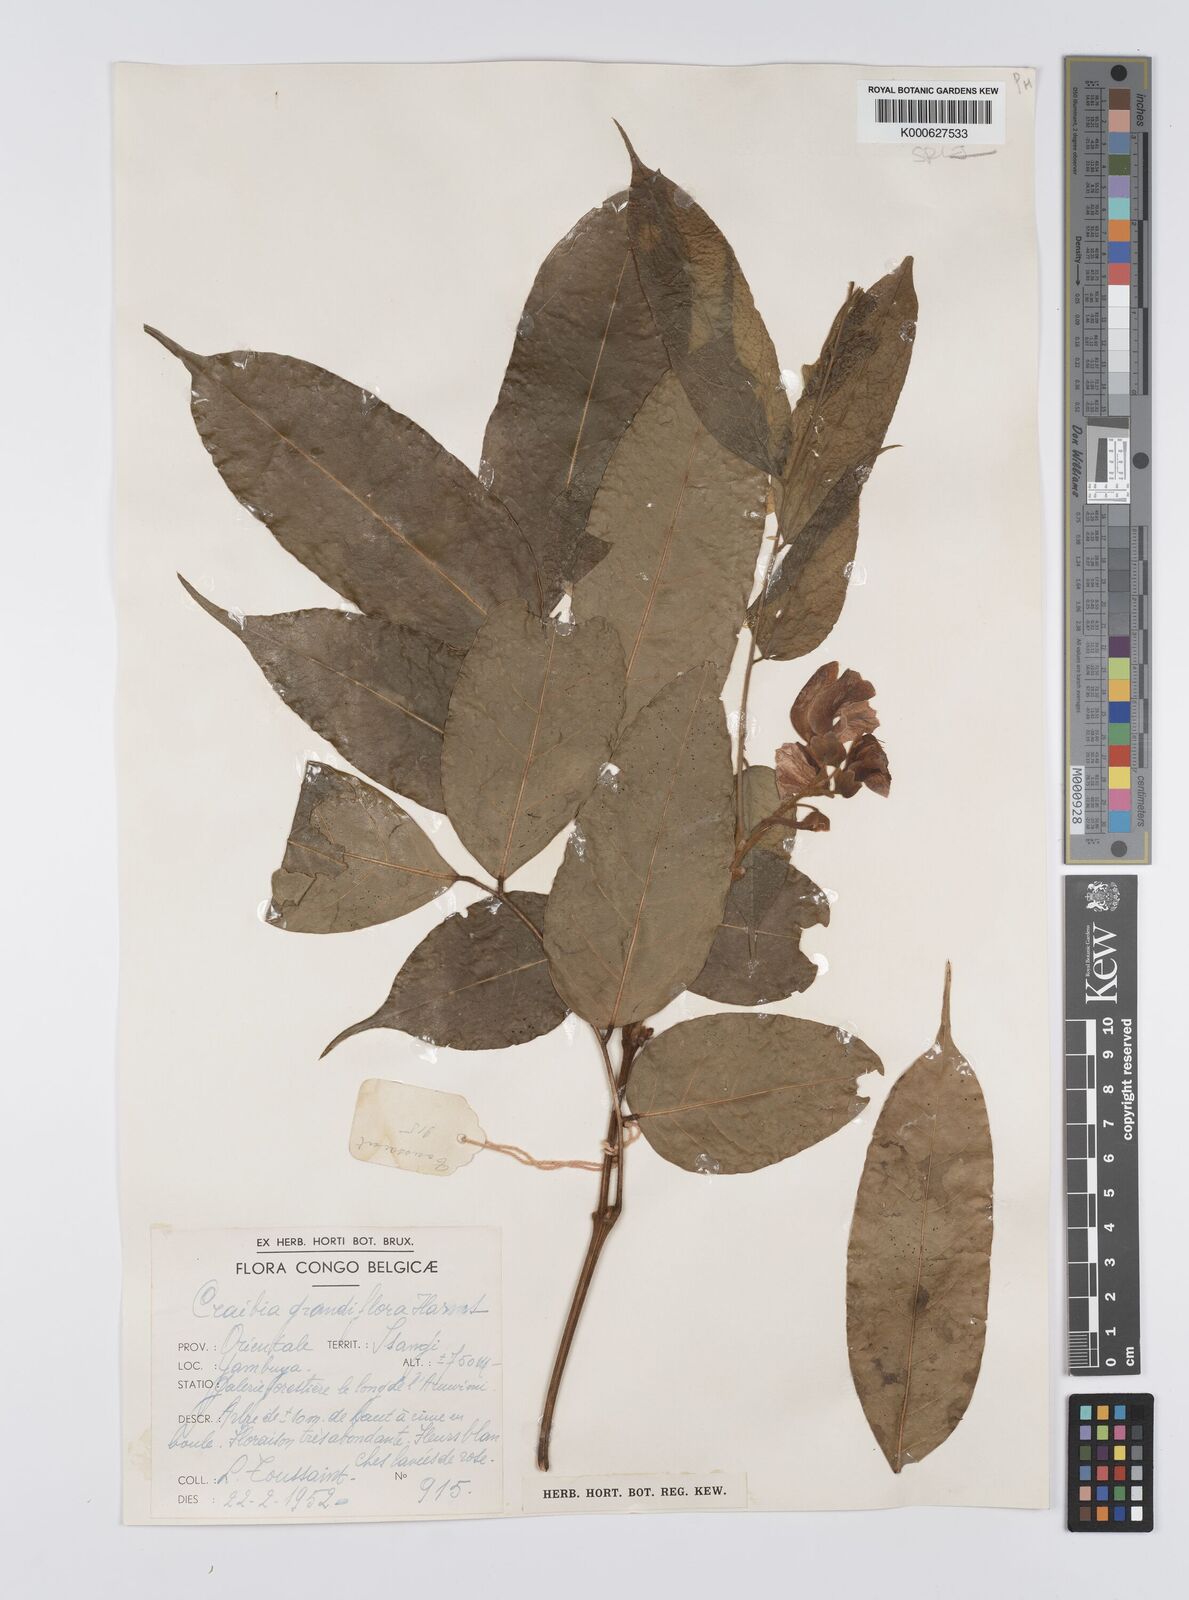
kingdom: Plantae
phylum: Tracheophyta
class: Magnoliopsida
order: Fabales
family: Fabaceae
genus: Craibia
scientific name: Craibia grandiflora
